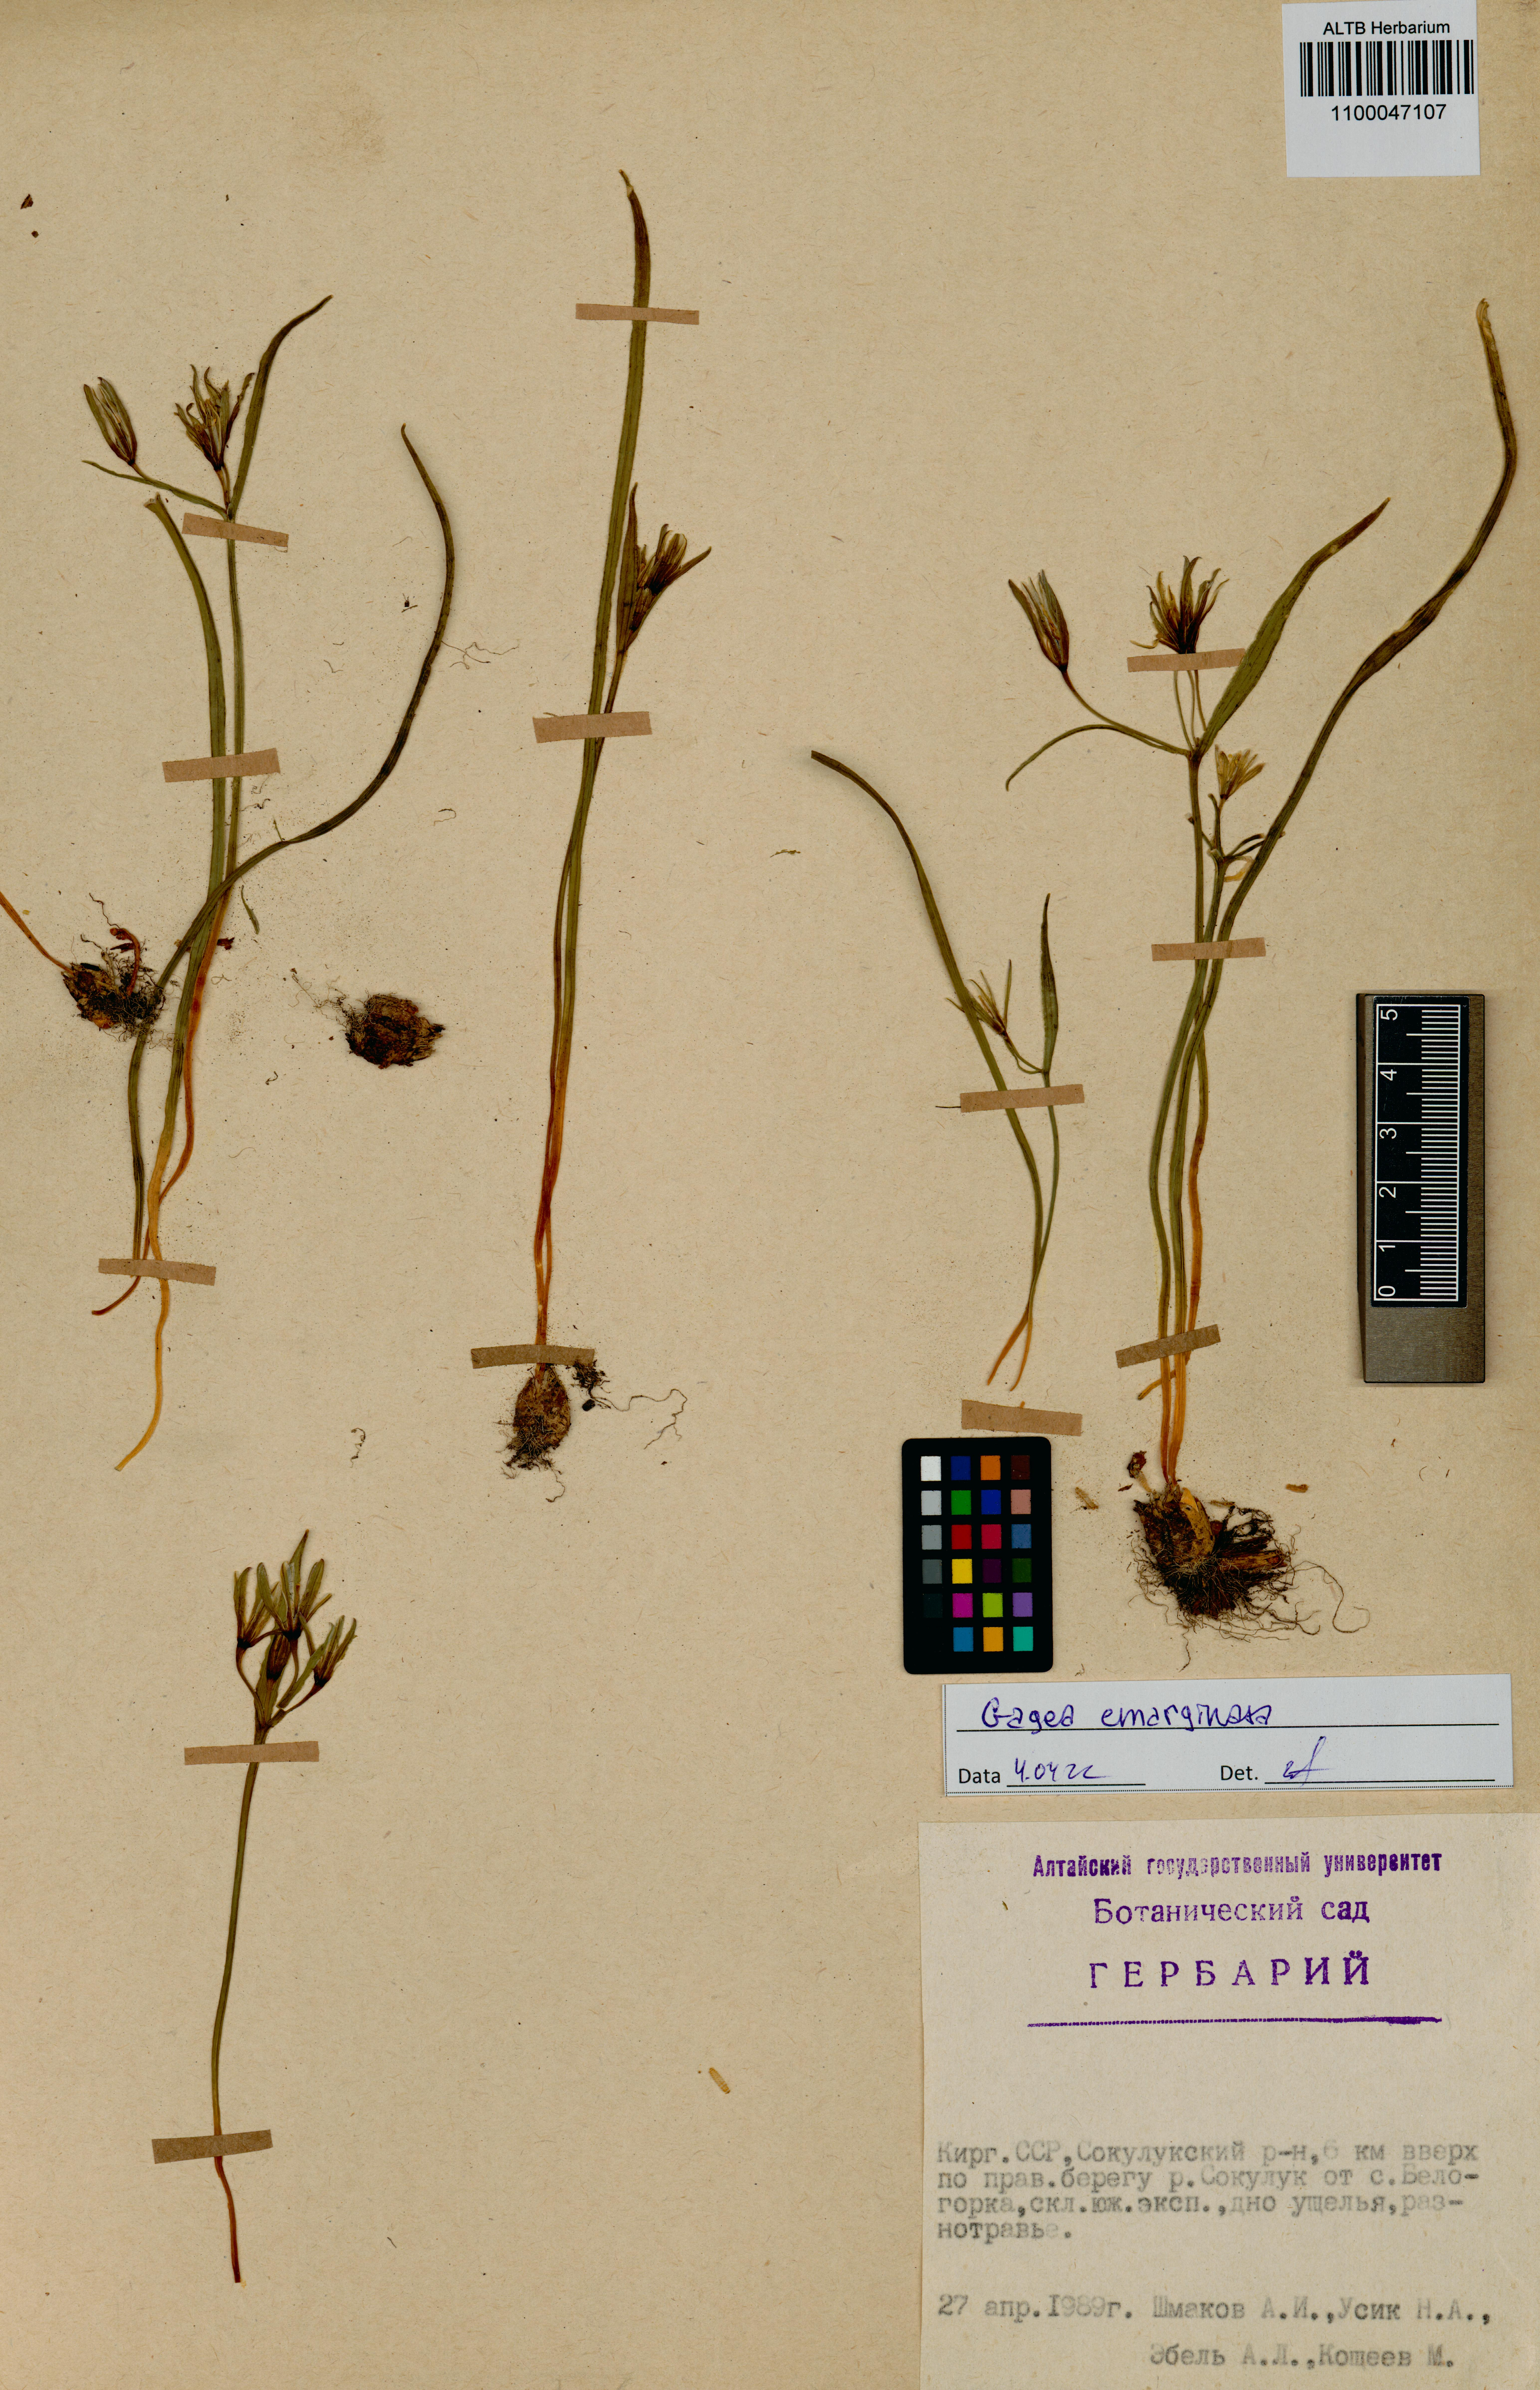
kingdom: Plantae
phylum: Tracheophyta
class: Liliopsida
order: Liliales
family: Liliaceae
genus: Gagea
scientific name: Gagea fragifera
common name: Lily
